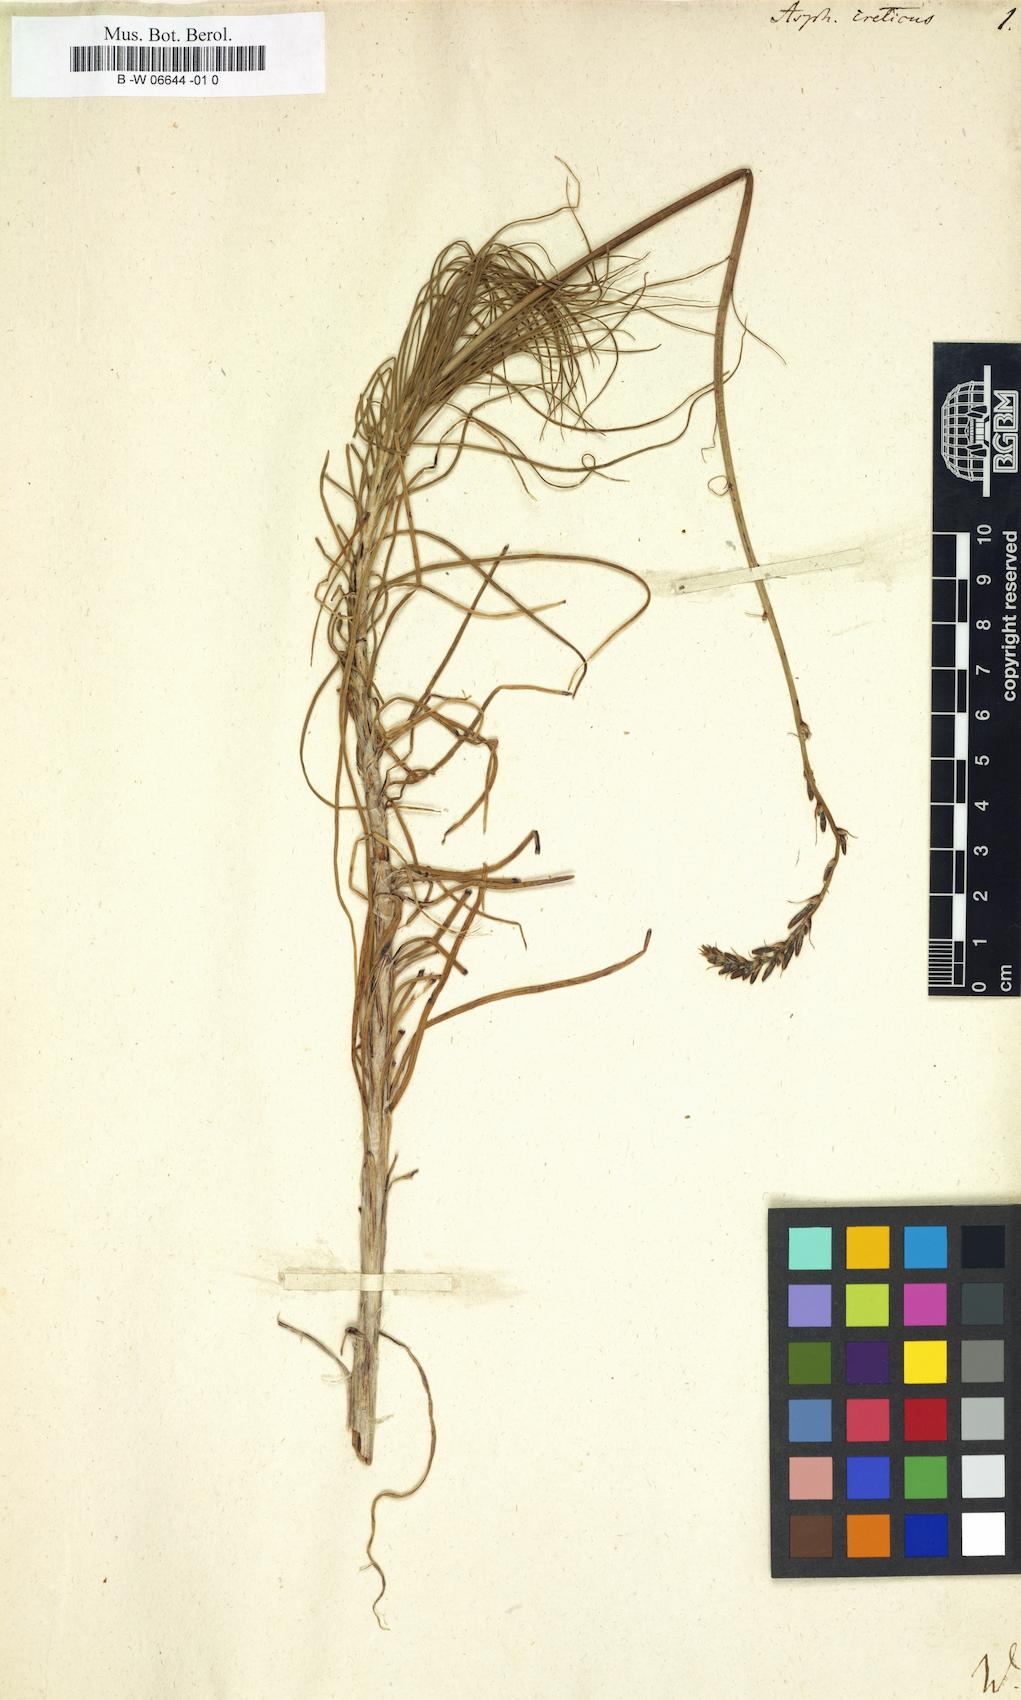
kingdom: Plantae
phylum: Tracheophyta
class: Liliopsida
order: Asparagales
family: Asphodelaceae
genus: Asphodeline
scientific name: Asphodeline liburnica
